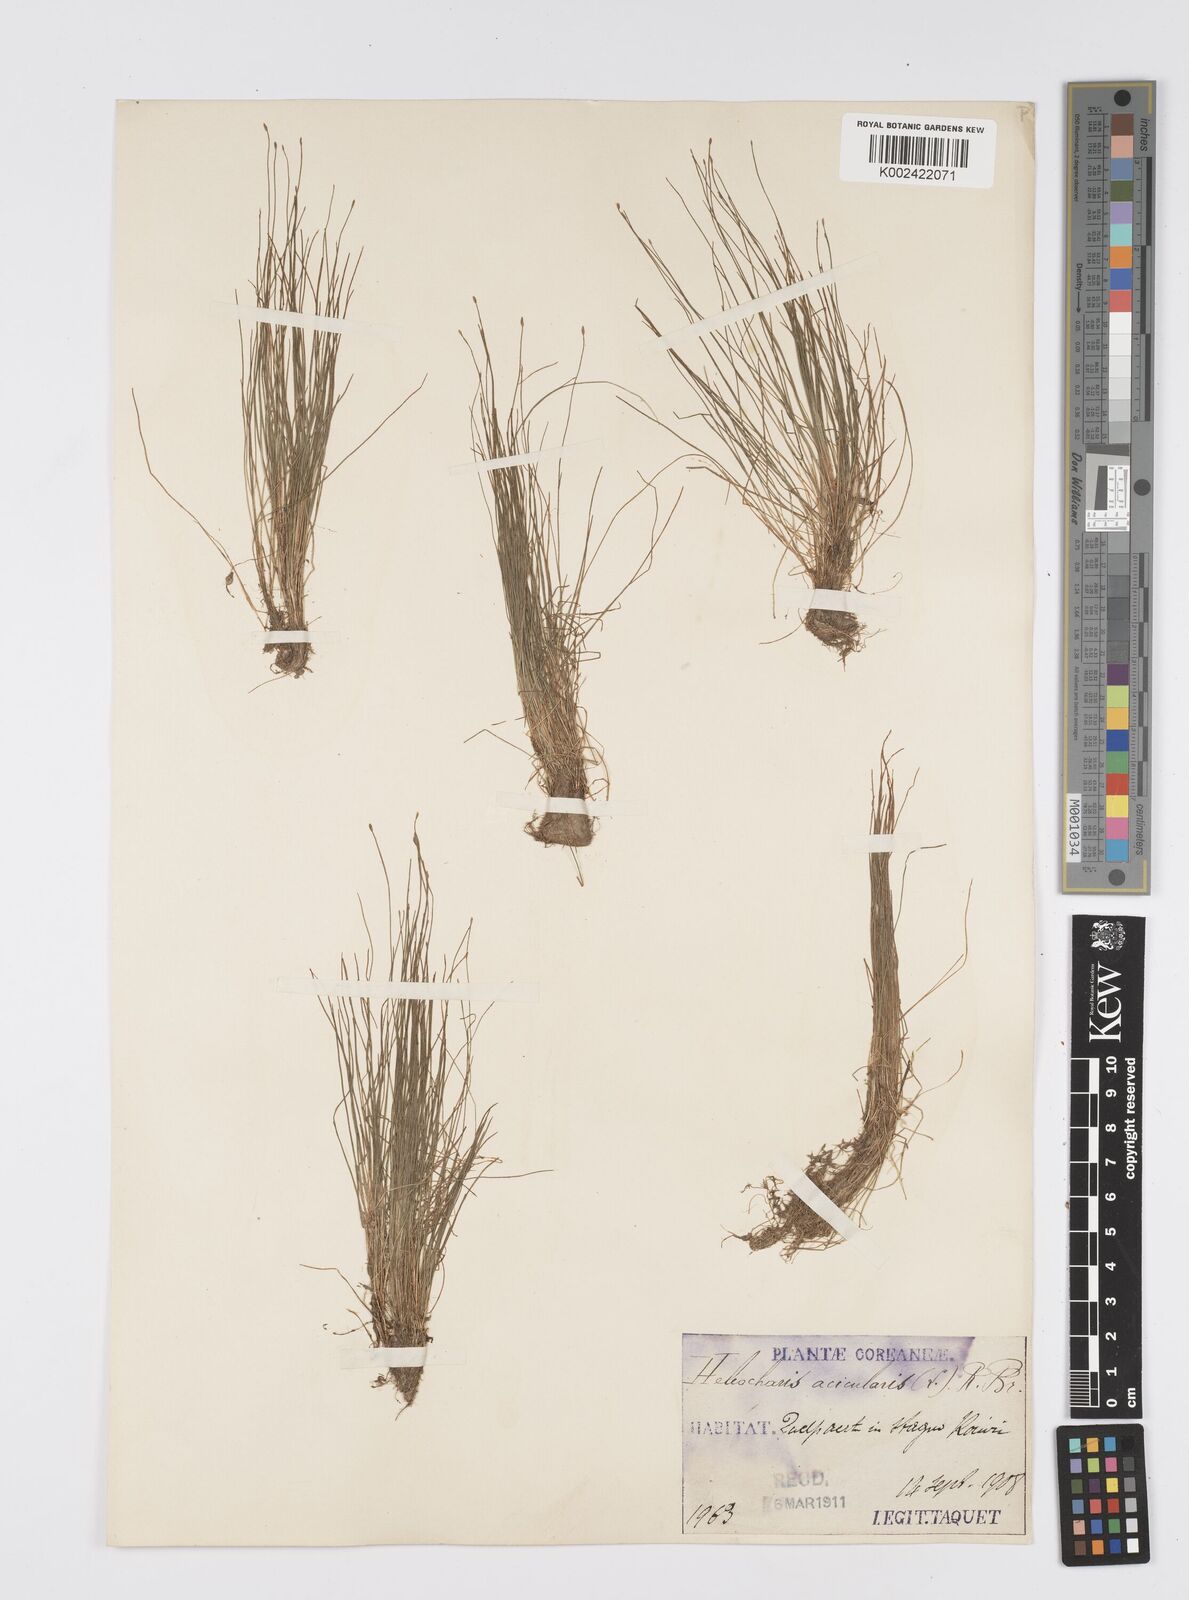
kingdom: Plantae
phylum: Tracheophyta
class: Liliopsida
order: Poales
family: Cyperaceae
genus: Eleocharis
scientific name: Eleocharis acicularis
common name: Needle spike-rush
